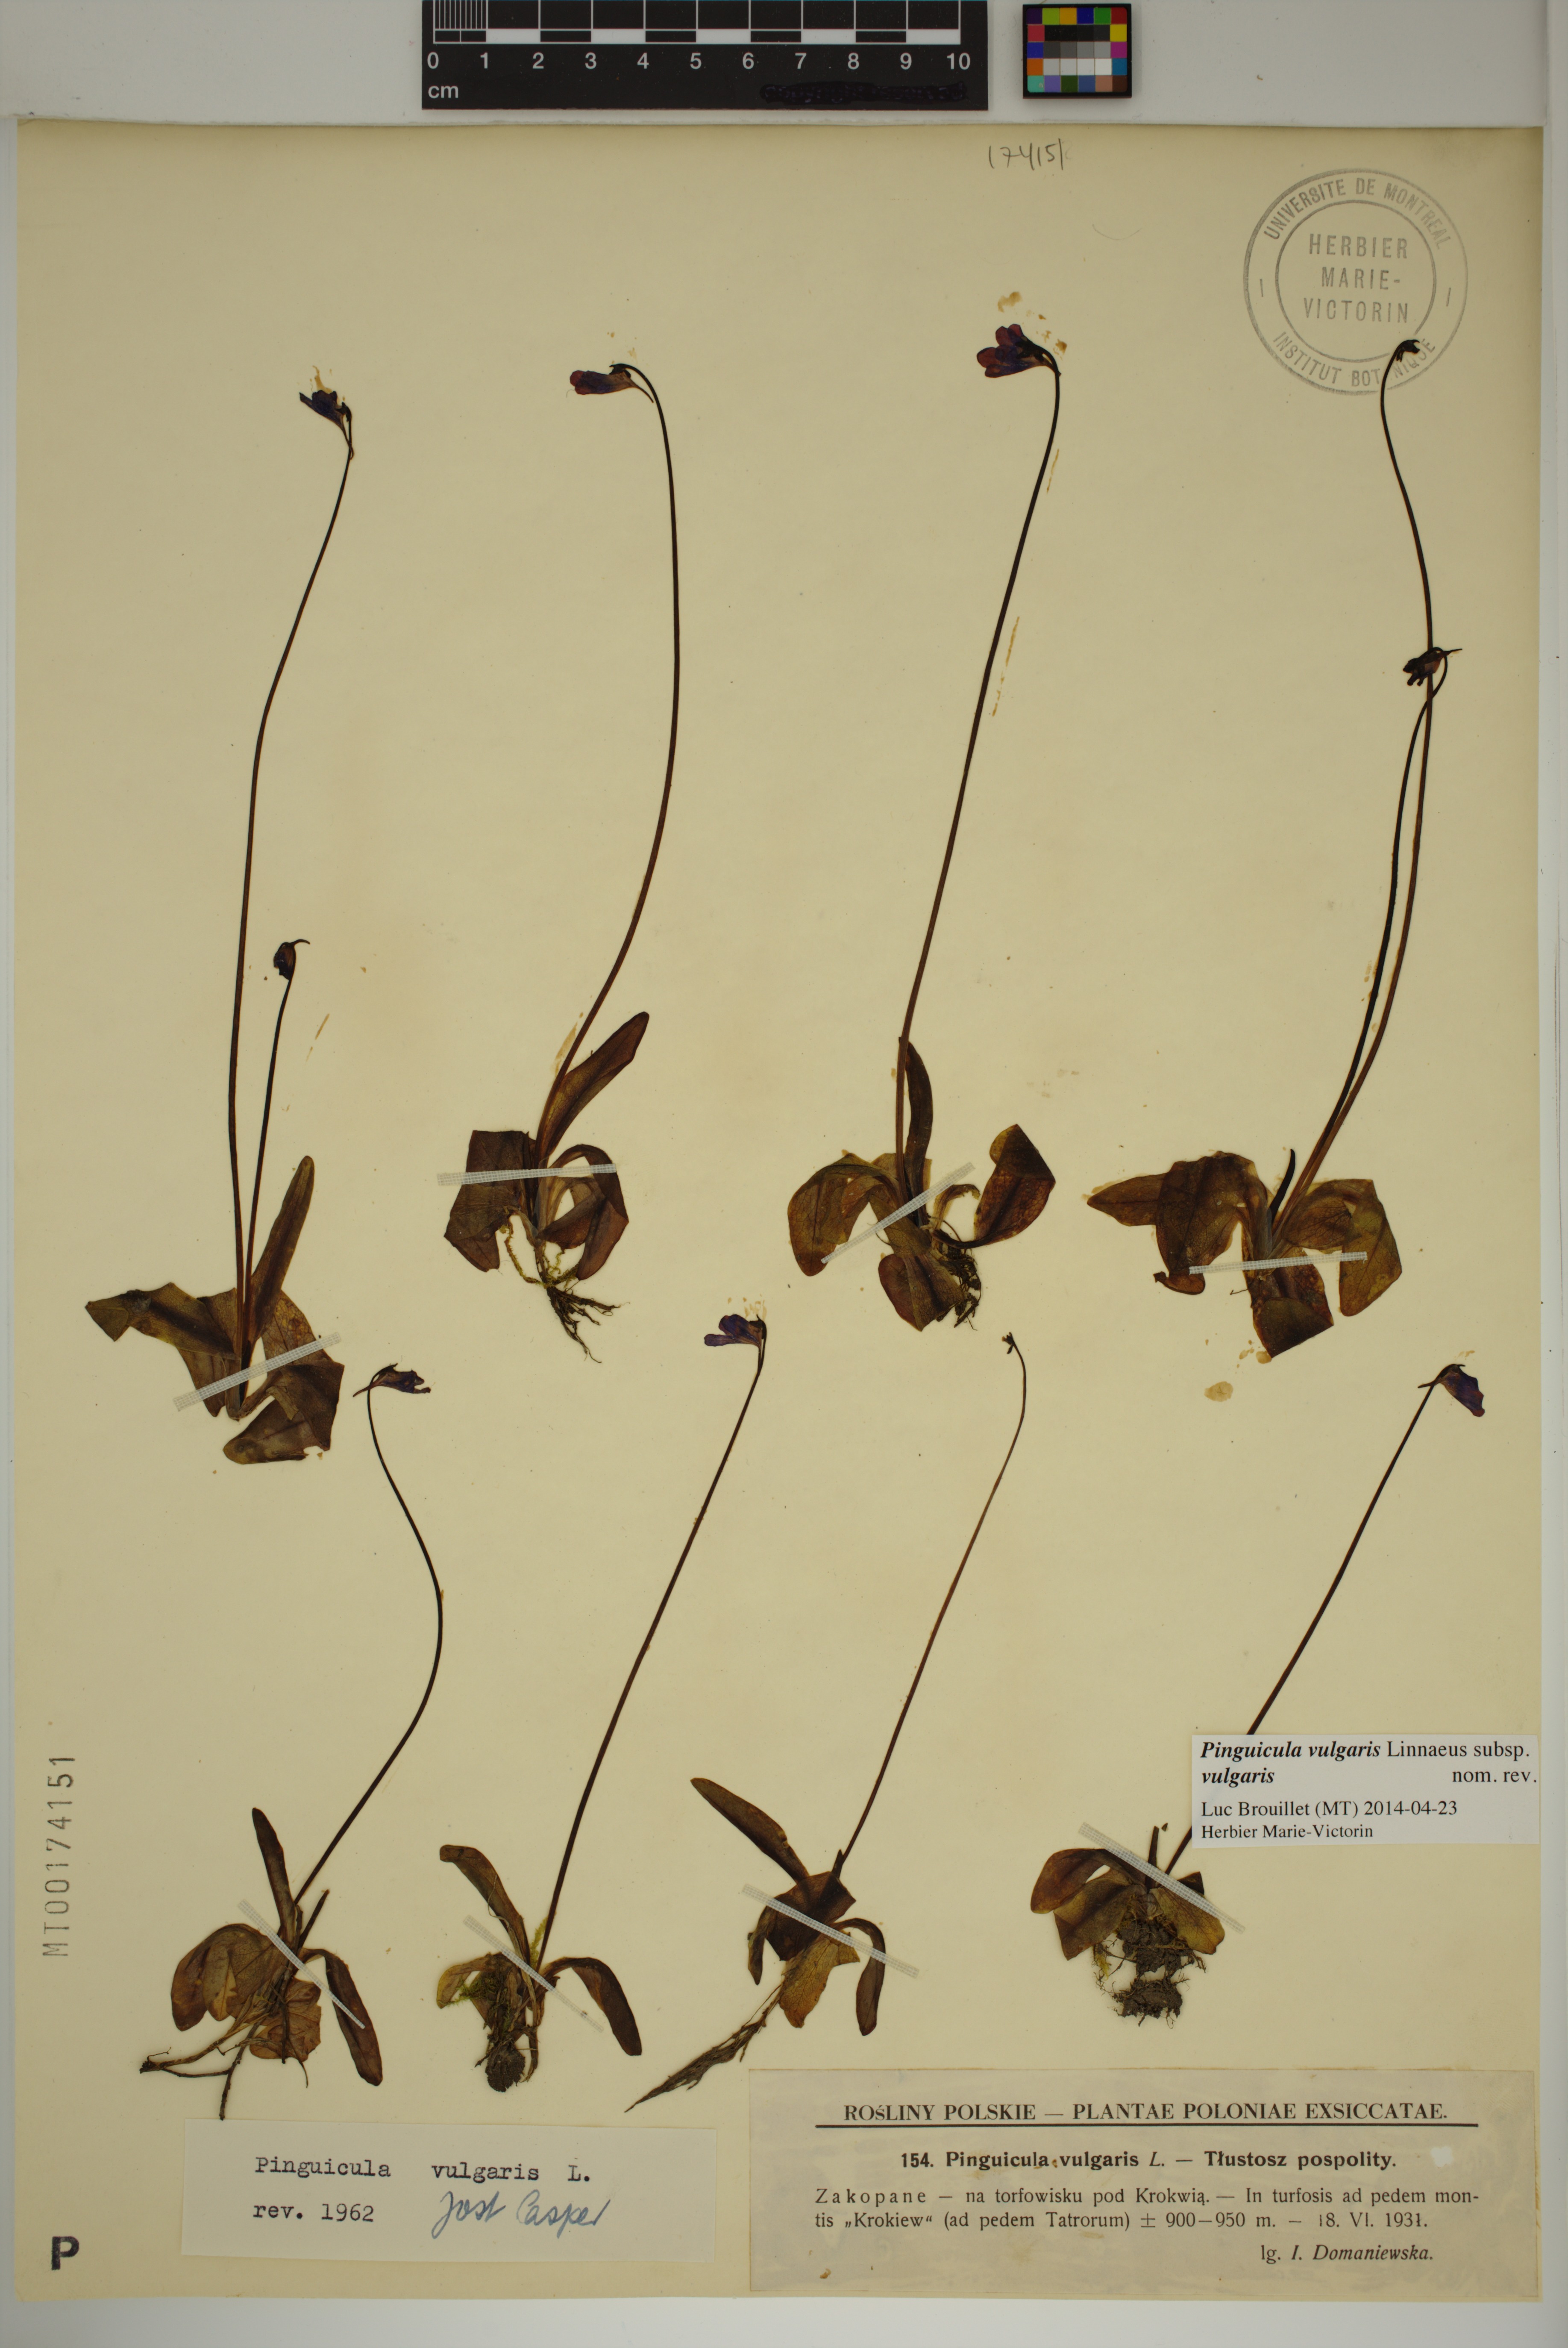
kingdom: Plantae
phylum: Tracheophyta
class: Magnoliopsida
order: Lamiales
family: Lentibulariaceae
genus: Pinguicula
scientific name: Pinguicula vulgaris
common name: Common butterwort
